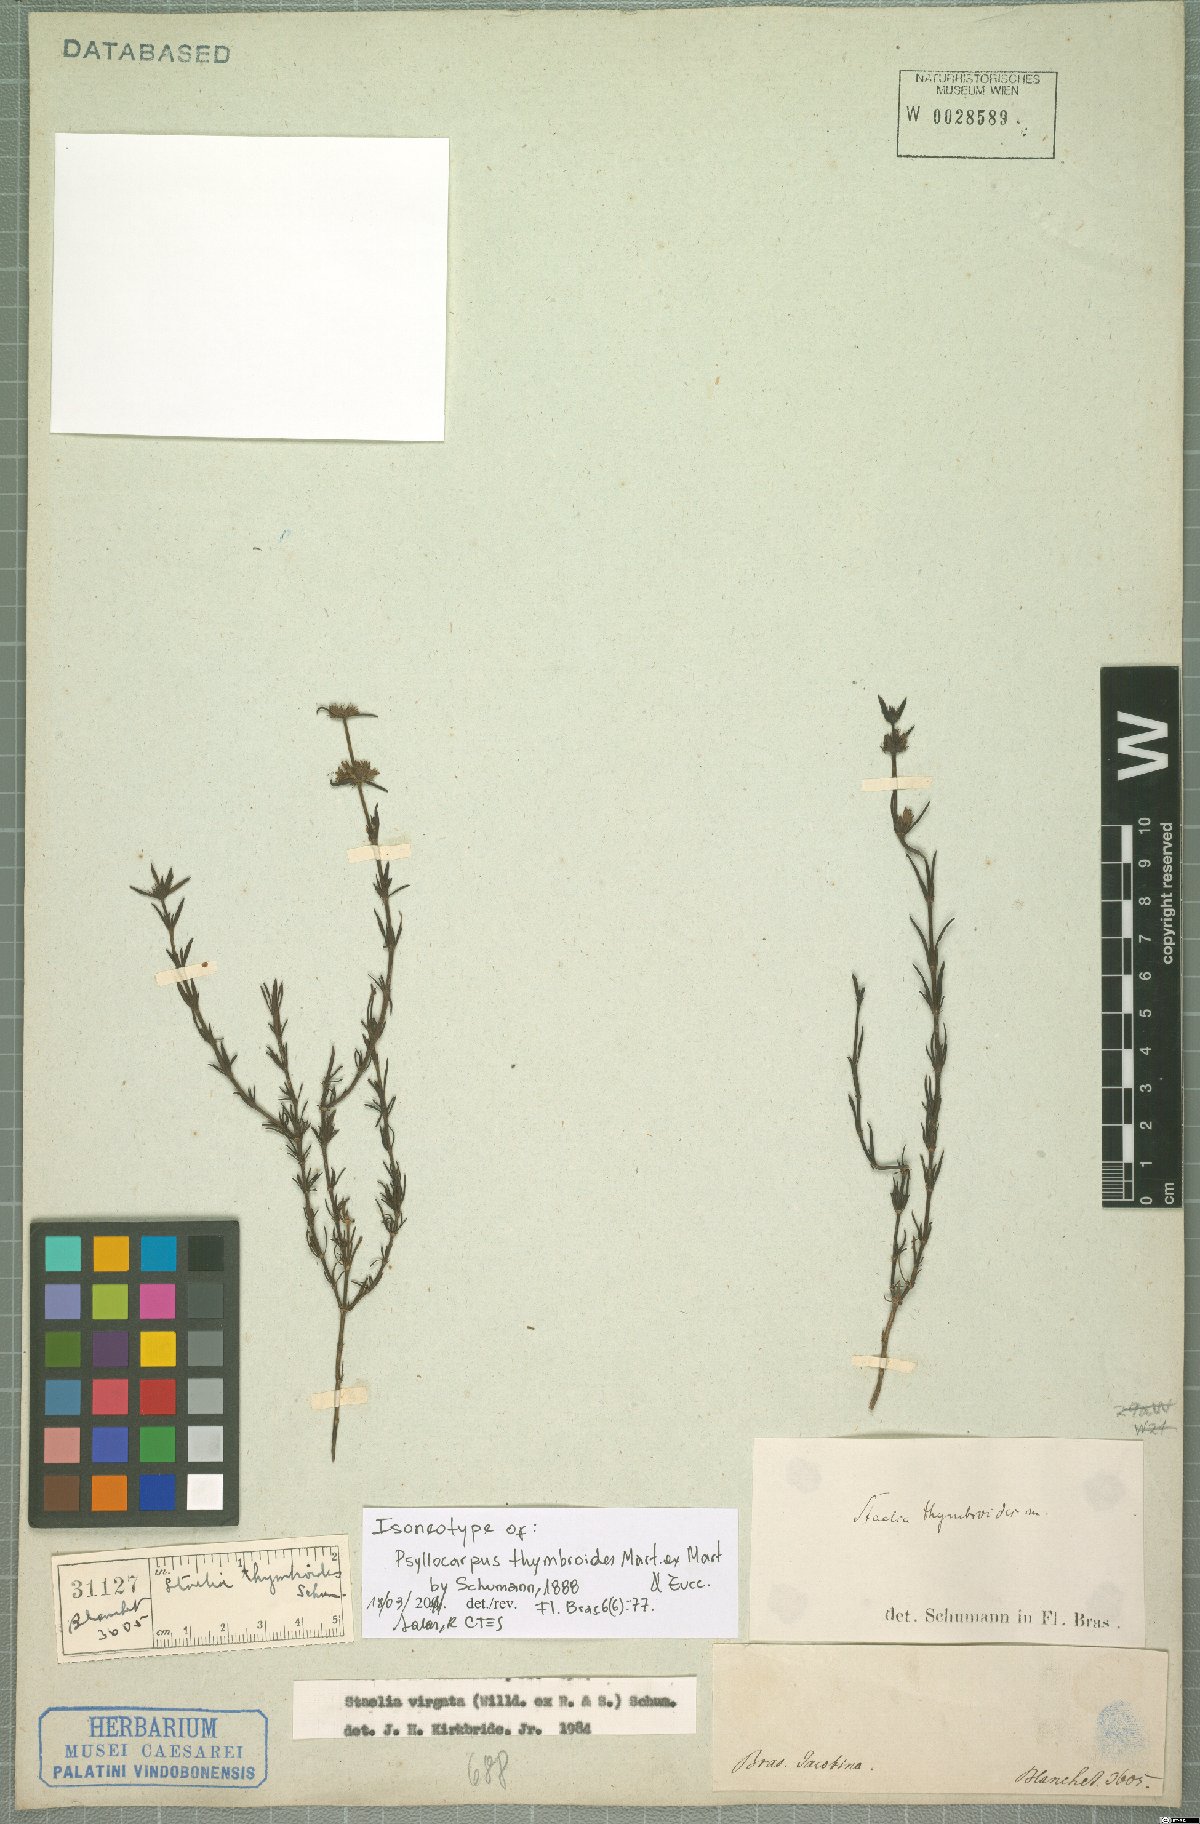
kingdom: Plantae
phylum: Tracheophyta
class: Magnoliopsida
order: Gentianales
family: Rubiaceae
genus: Staelia
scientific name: Staelia thymbroides
